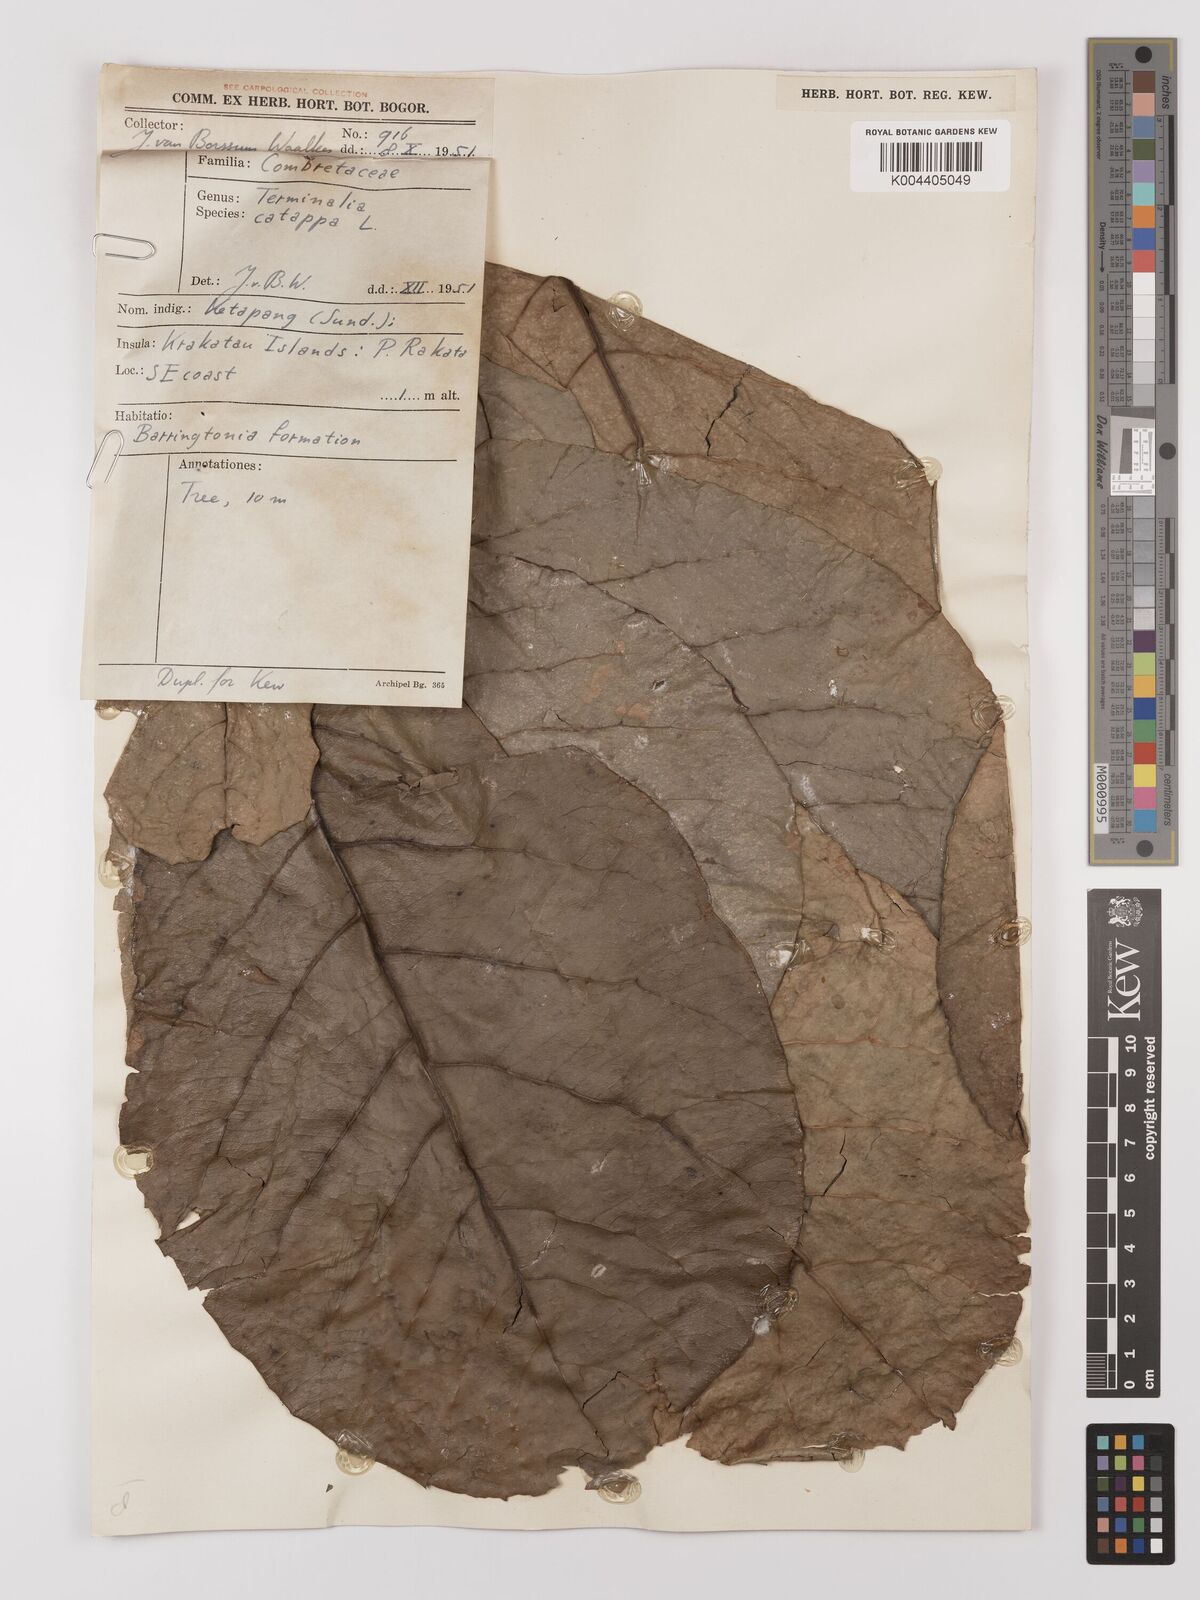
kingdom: Plantae
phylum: Tracheophyta
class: Magnoliopsida
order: Myrtales
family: Combretaceae
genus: Terminalia
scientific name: Terminalia catappa
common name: Tropical almond
